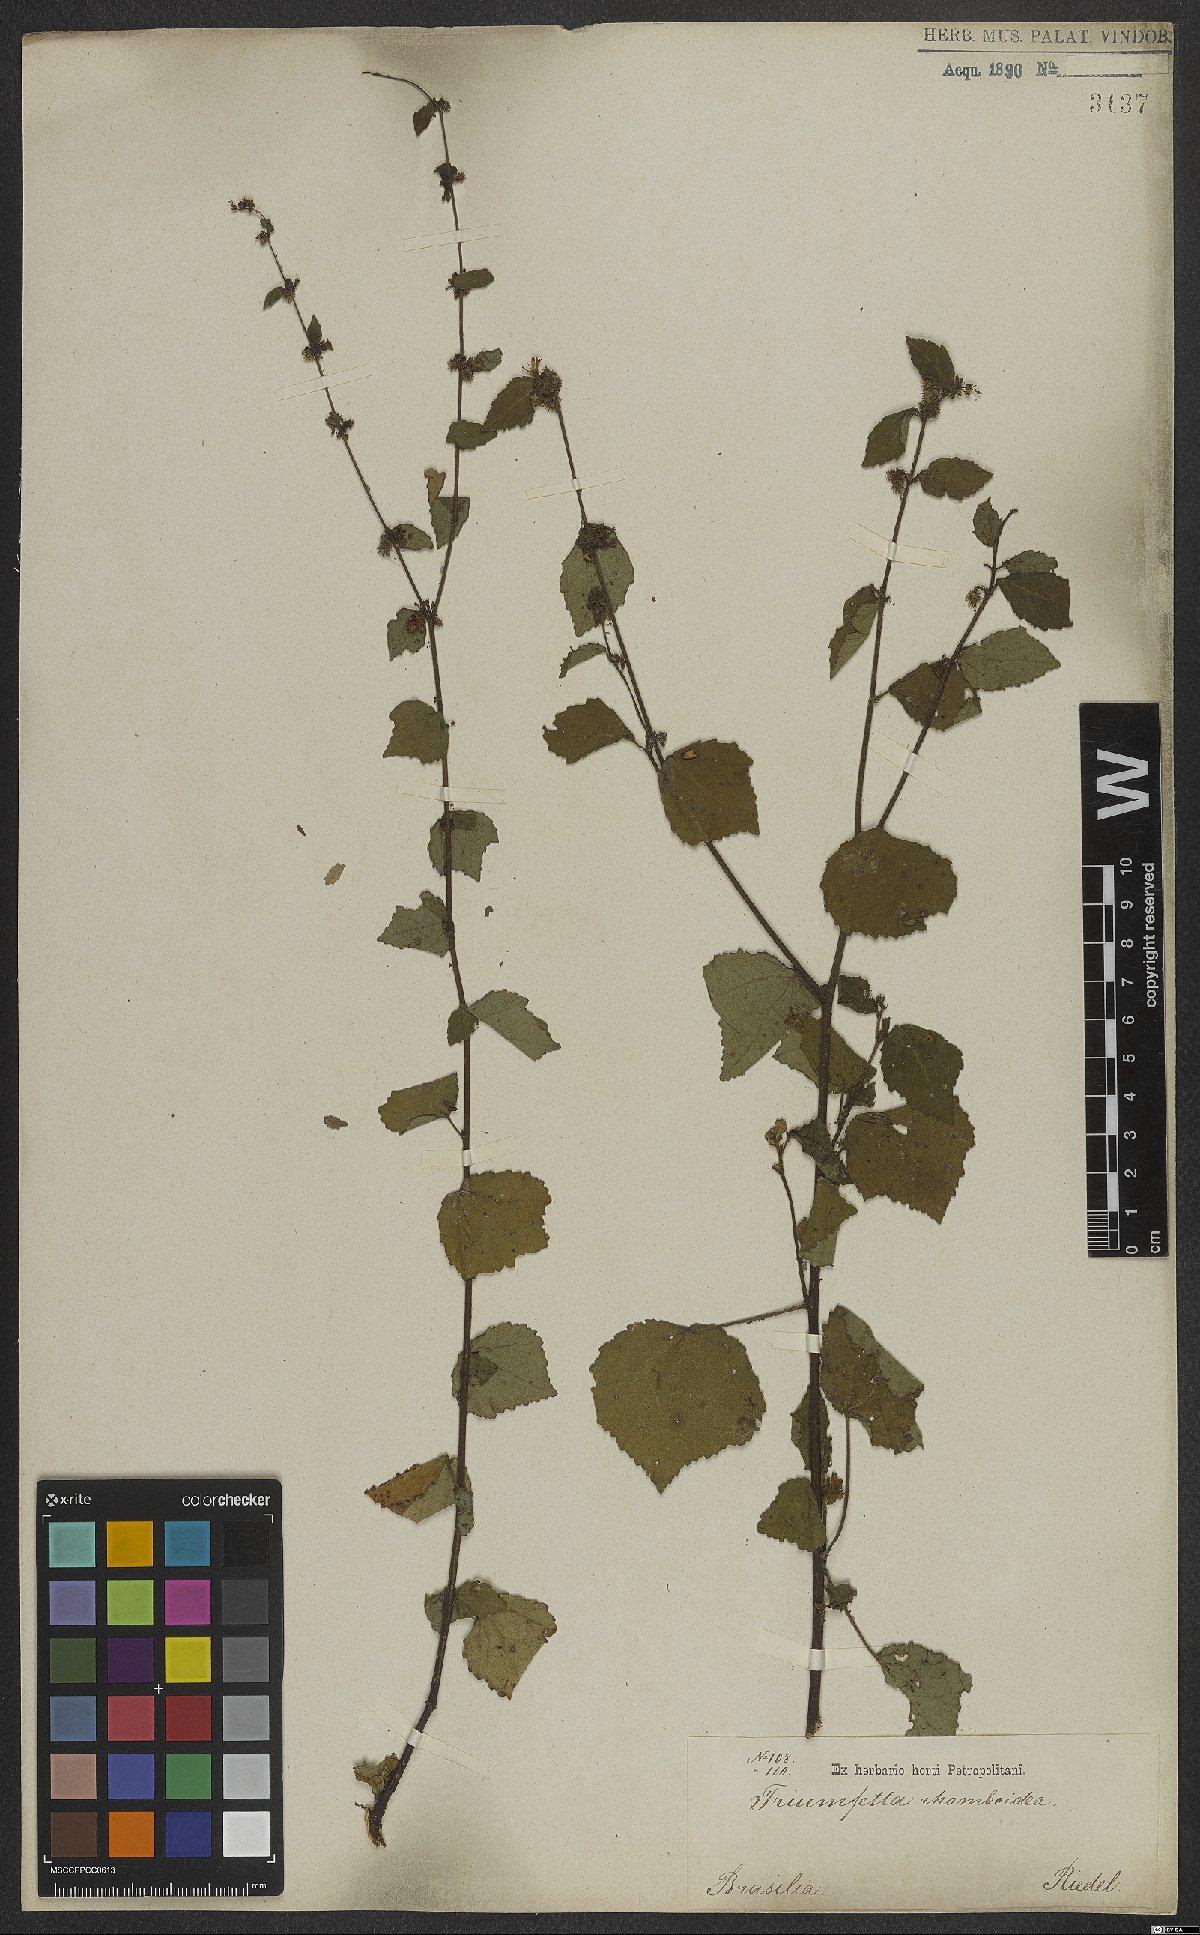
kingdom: Plantae
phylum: Tracheophyta
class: Magnoliopsida
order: Malvales
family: Malvaceae
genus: Triumfetta
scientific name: Triumfetta rhomboidea
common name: Diamond burbark
